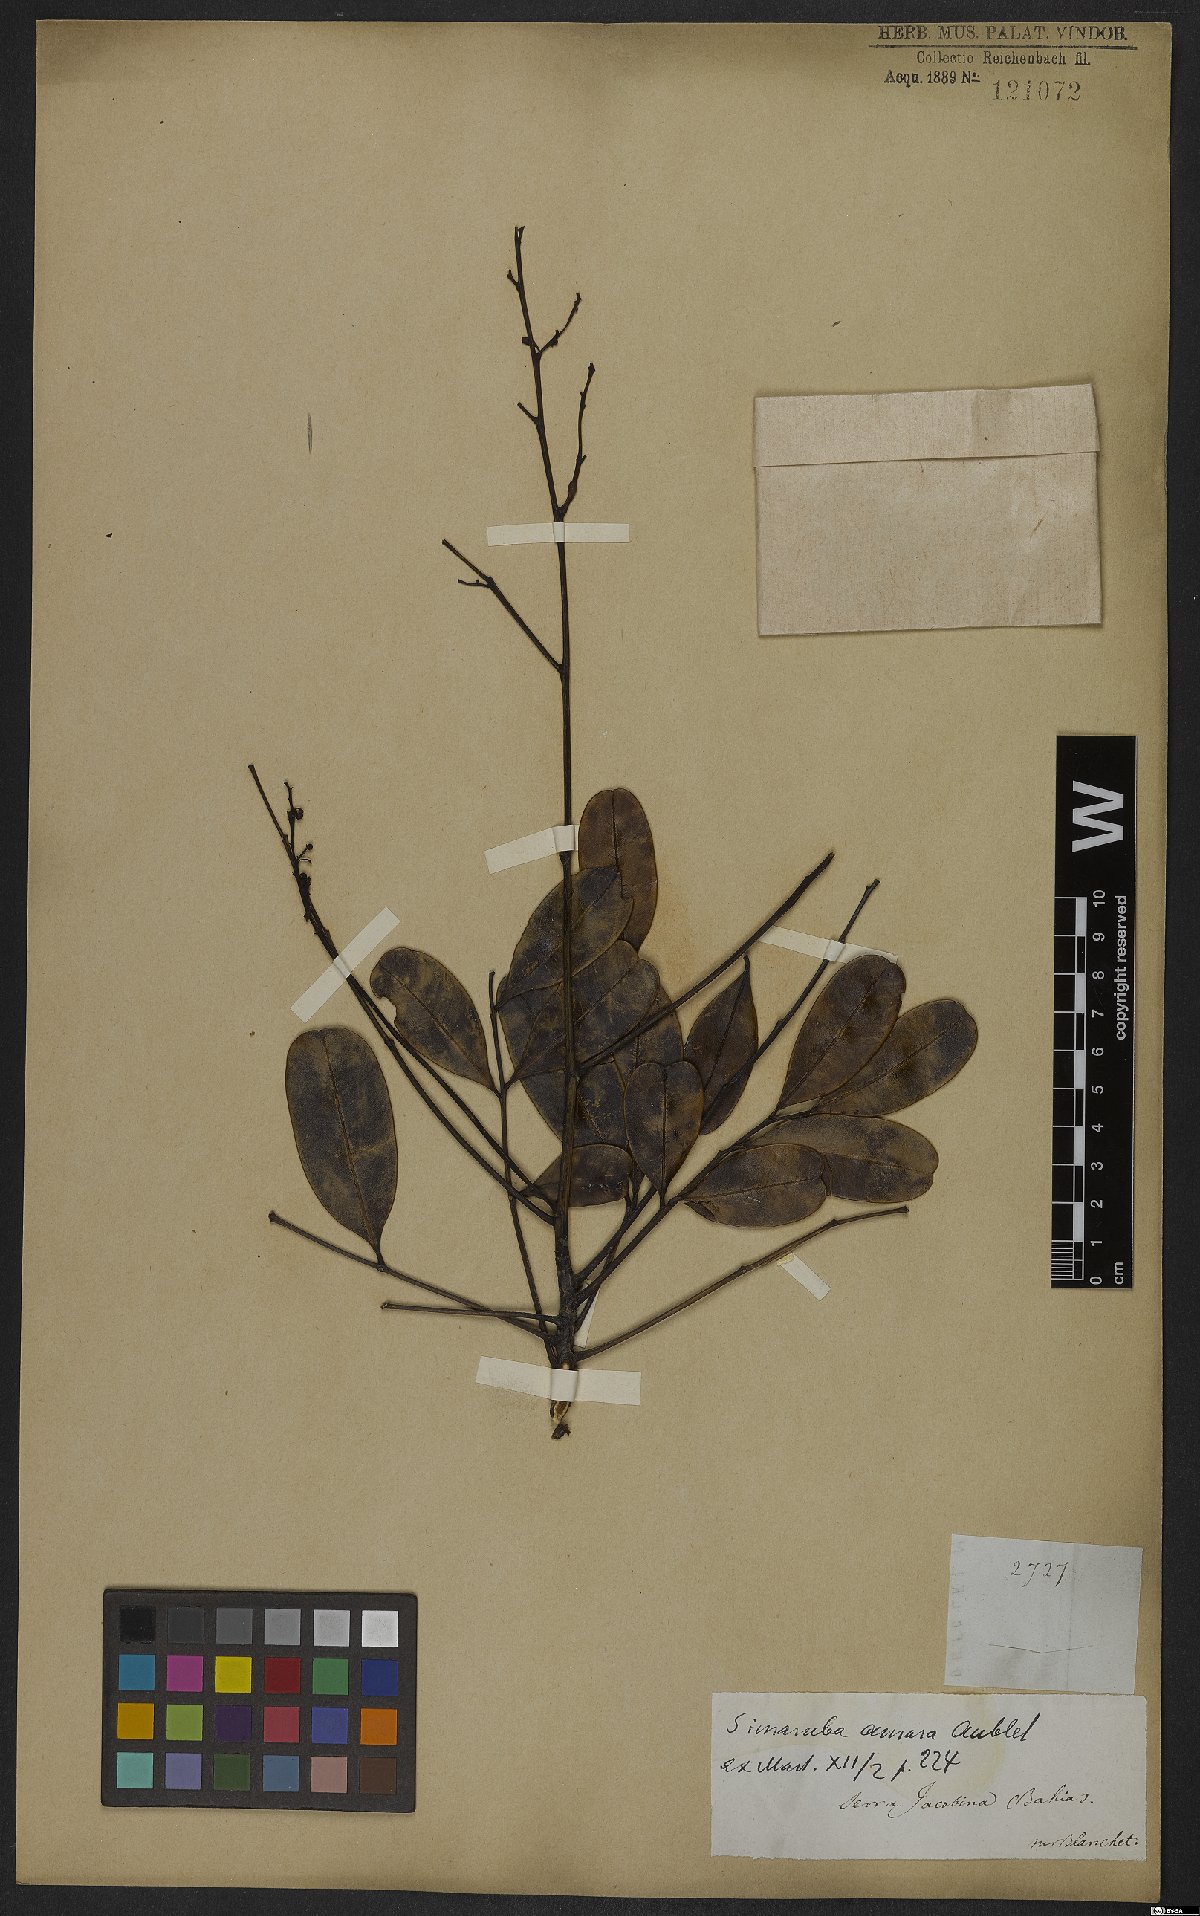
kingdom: Plantae
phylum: Tracheophyta
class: Magnoliopsida
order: Sapindales
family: Simaroubaceae
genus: Simarouba
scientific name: Simarouba amara
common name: Bitterwood
